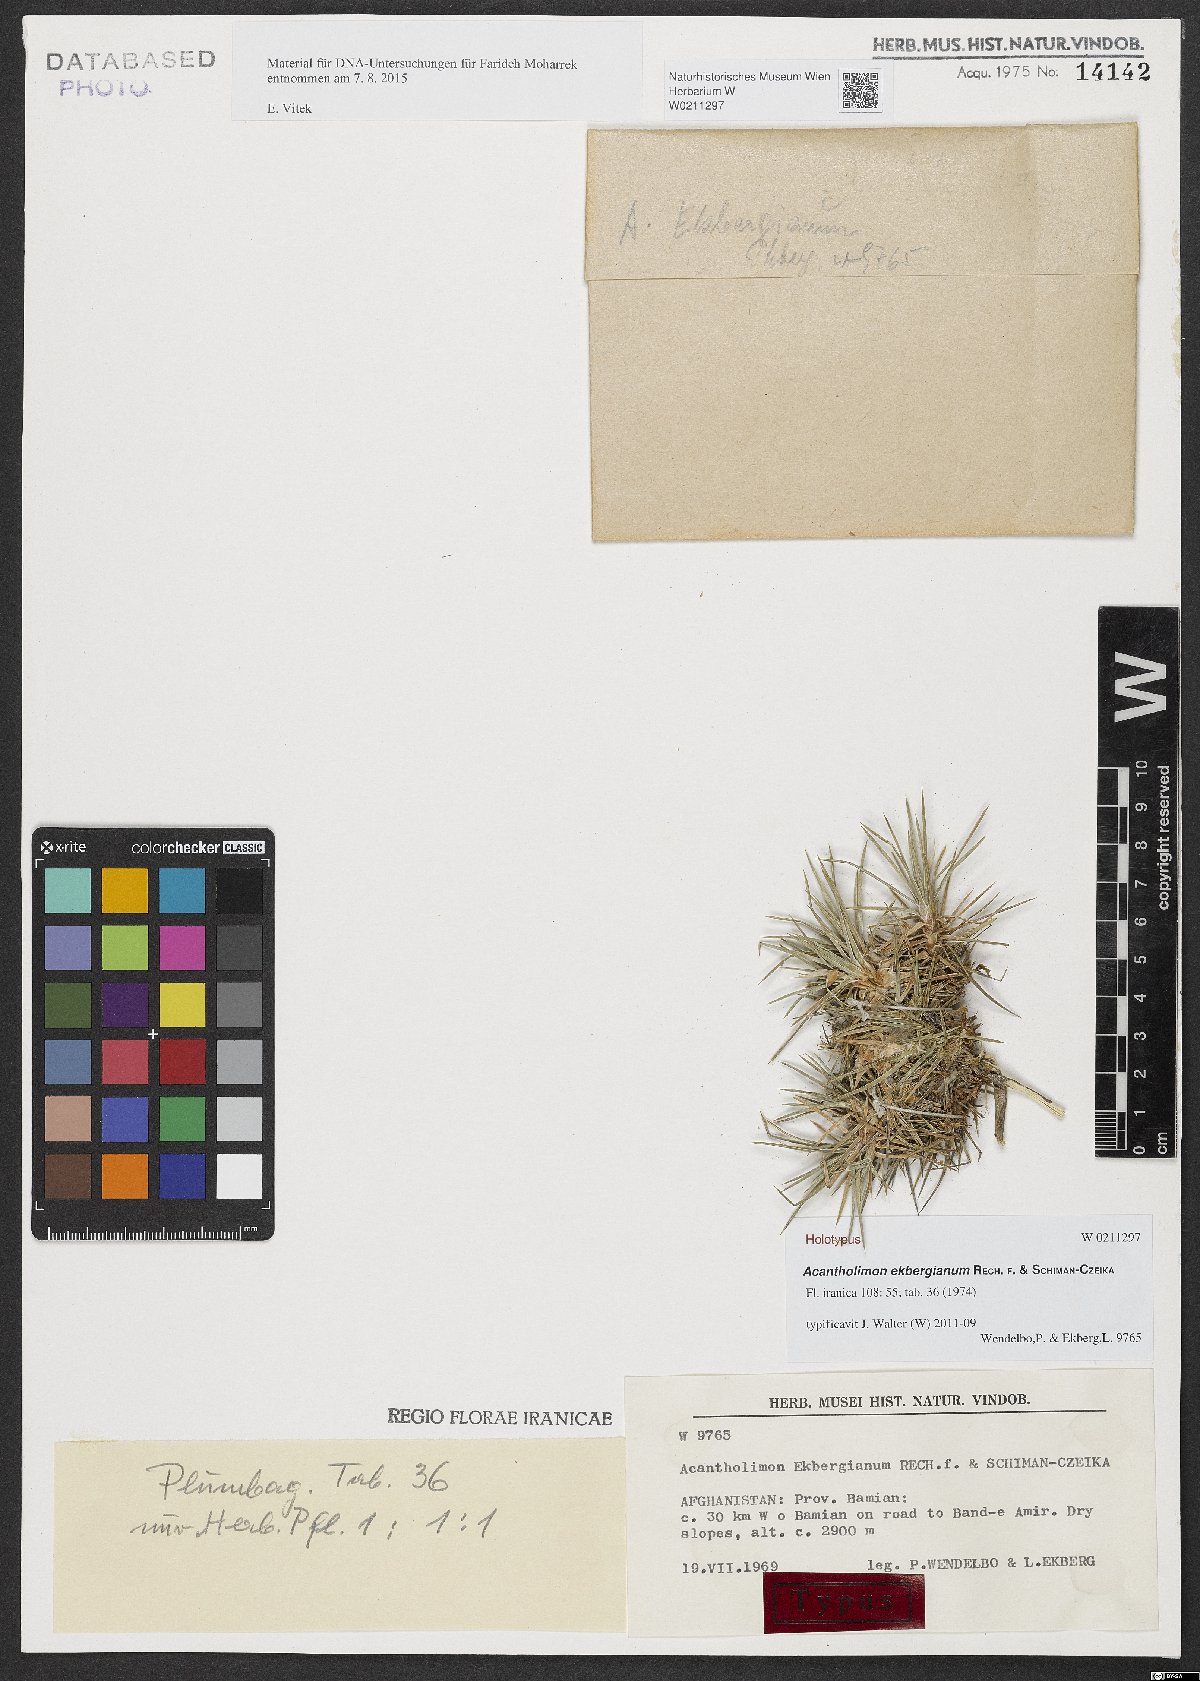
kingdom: Plantae
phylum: Tracheophyta
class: Magnoliopsida
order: Caryophyllales
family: Plumbaginaceae
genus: Acantholimon
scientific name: Acantholimon ekbergianum
